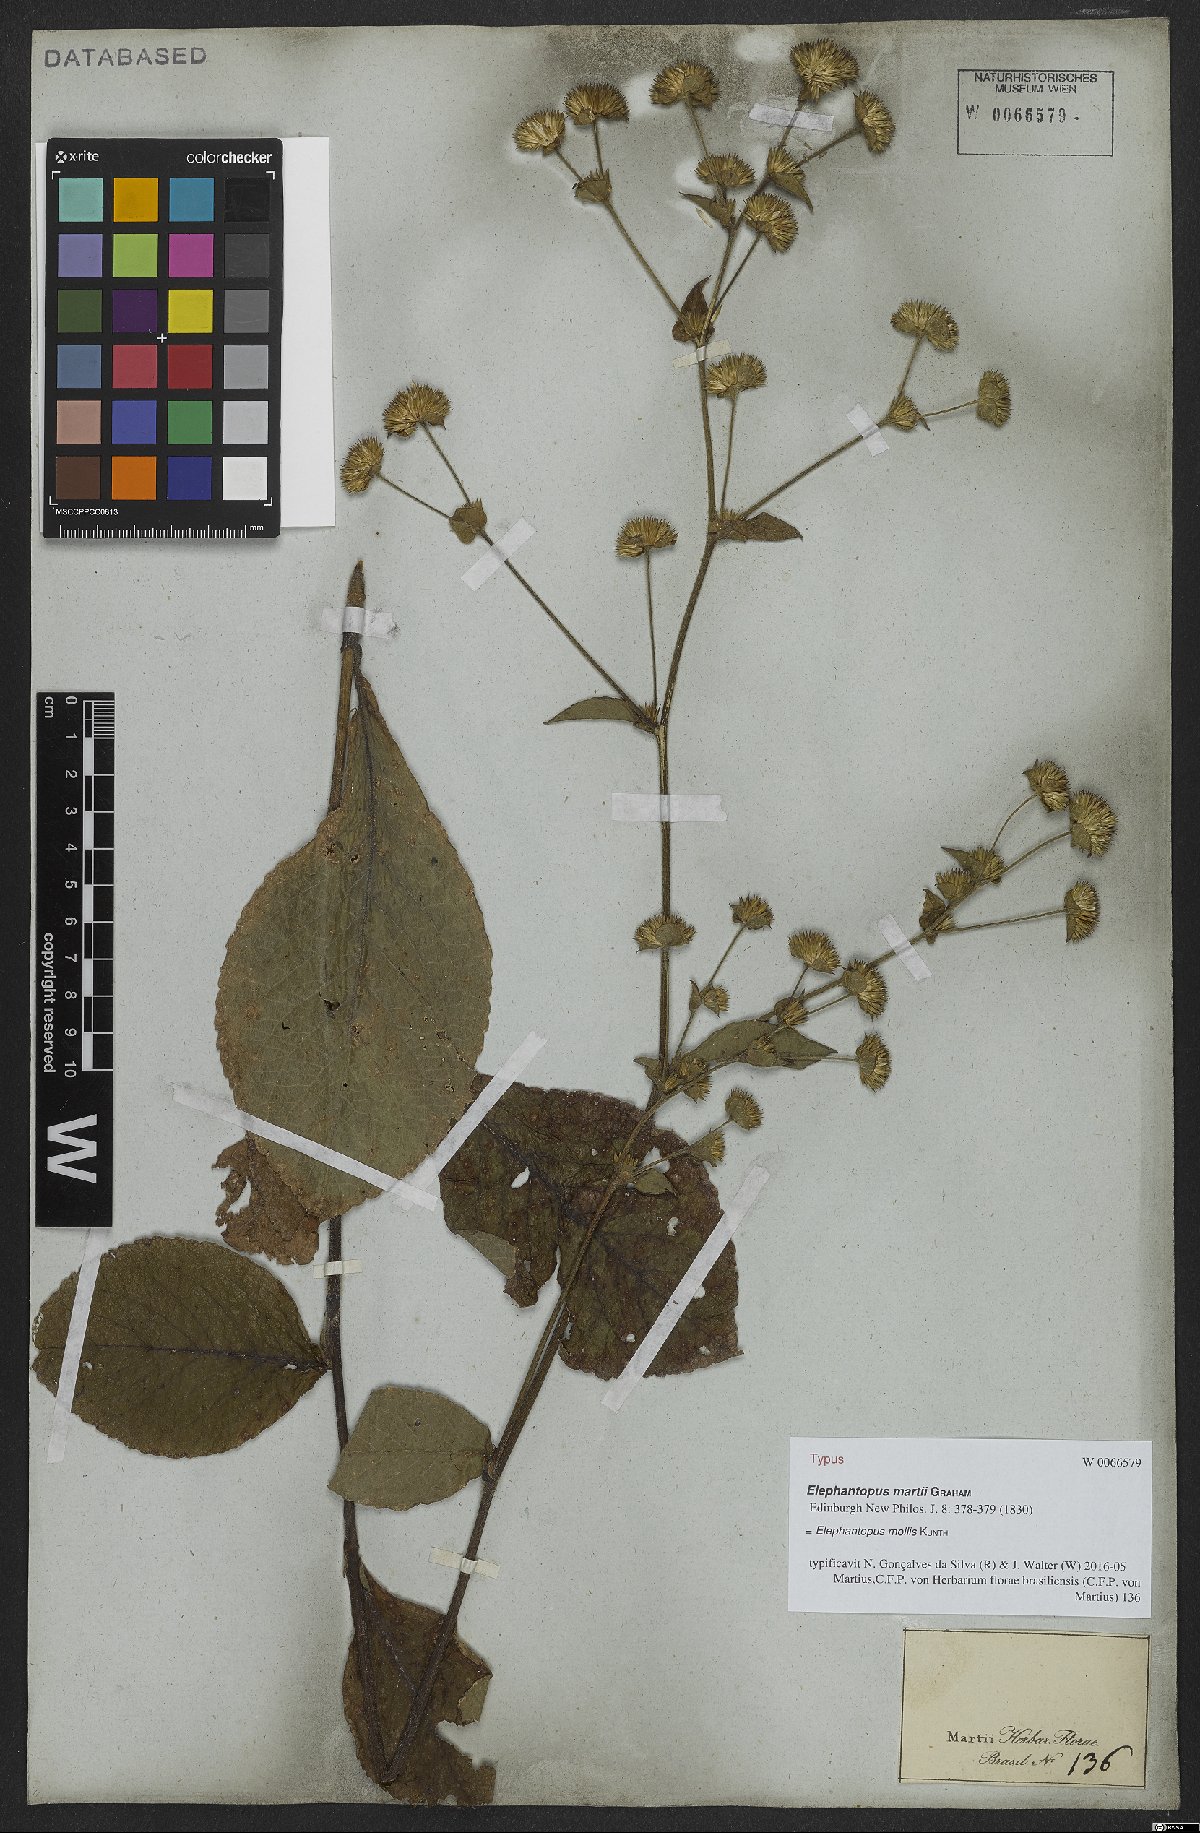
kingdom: Plantae
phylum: Tracheophyta
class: Magnoliopsida
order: Asterales
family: Asteraceae
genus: Elephantopus
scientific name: Elephantopus mollis
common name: Soft elephantsfoot
